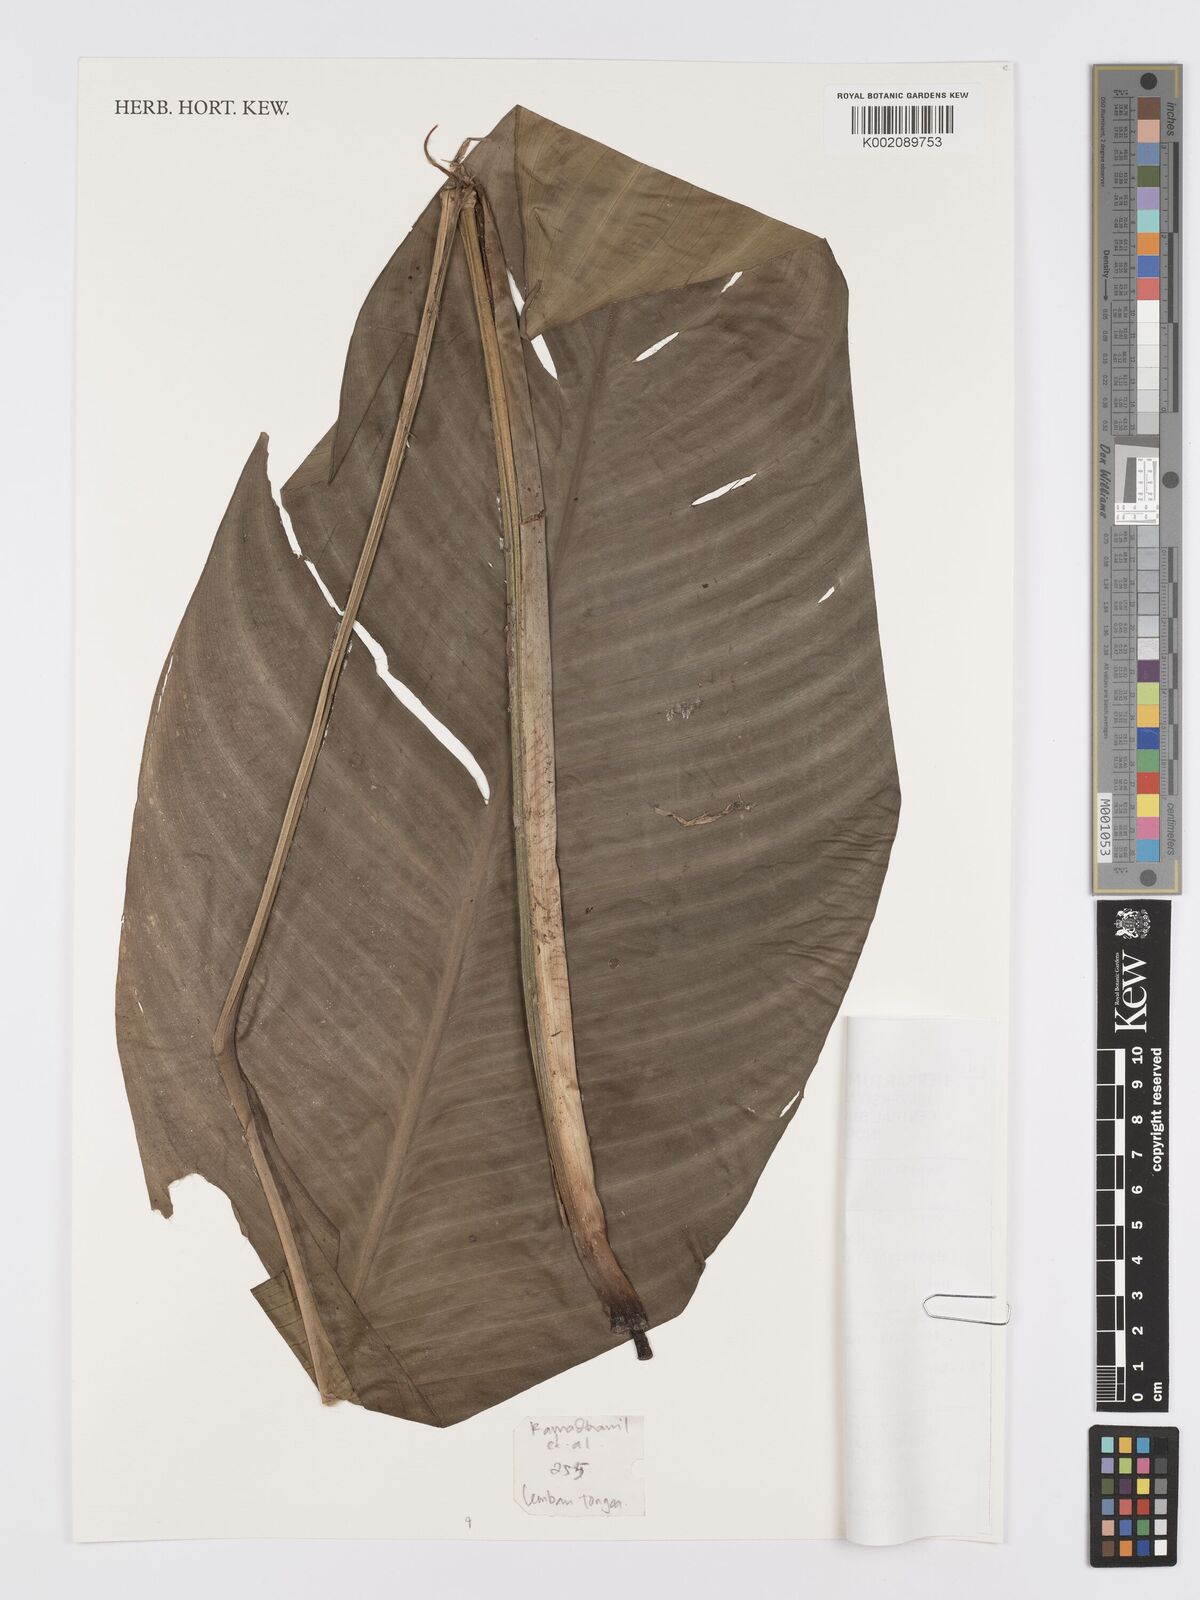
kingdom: Plantae
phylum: Tracheophyta
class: Liliopsida
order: Alismatales
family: Araceae
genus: Spathiphyllum
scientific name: Spathiphyllum commutatum
